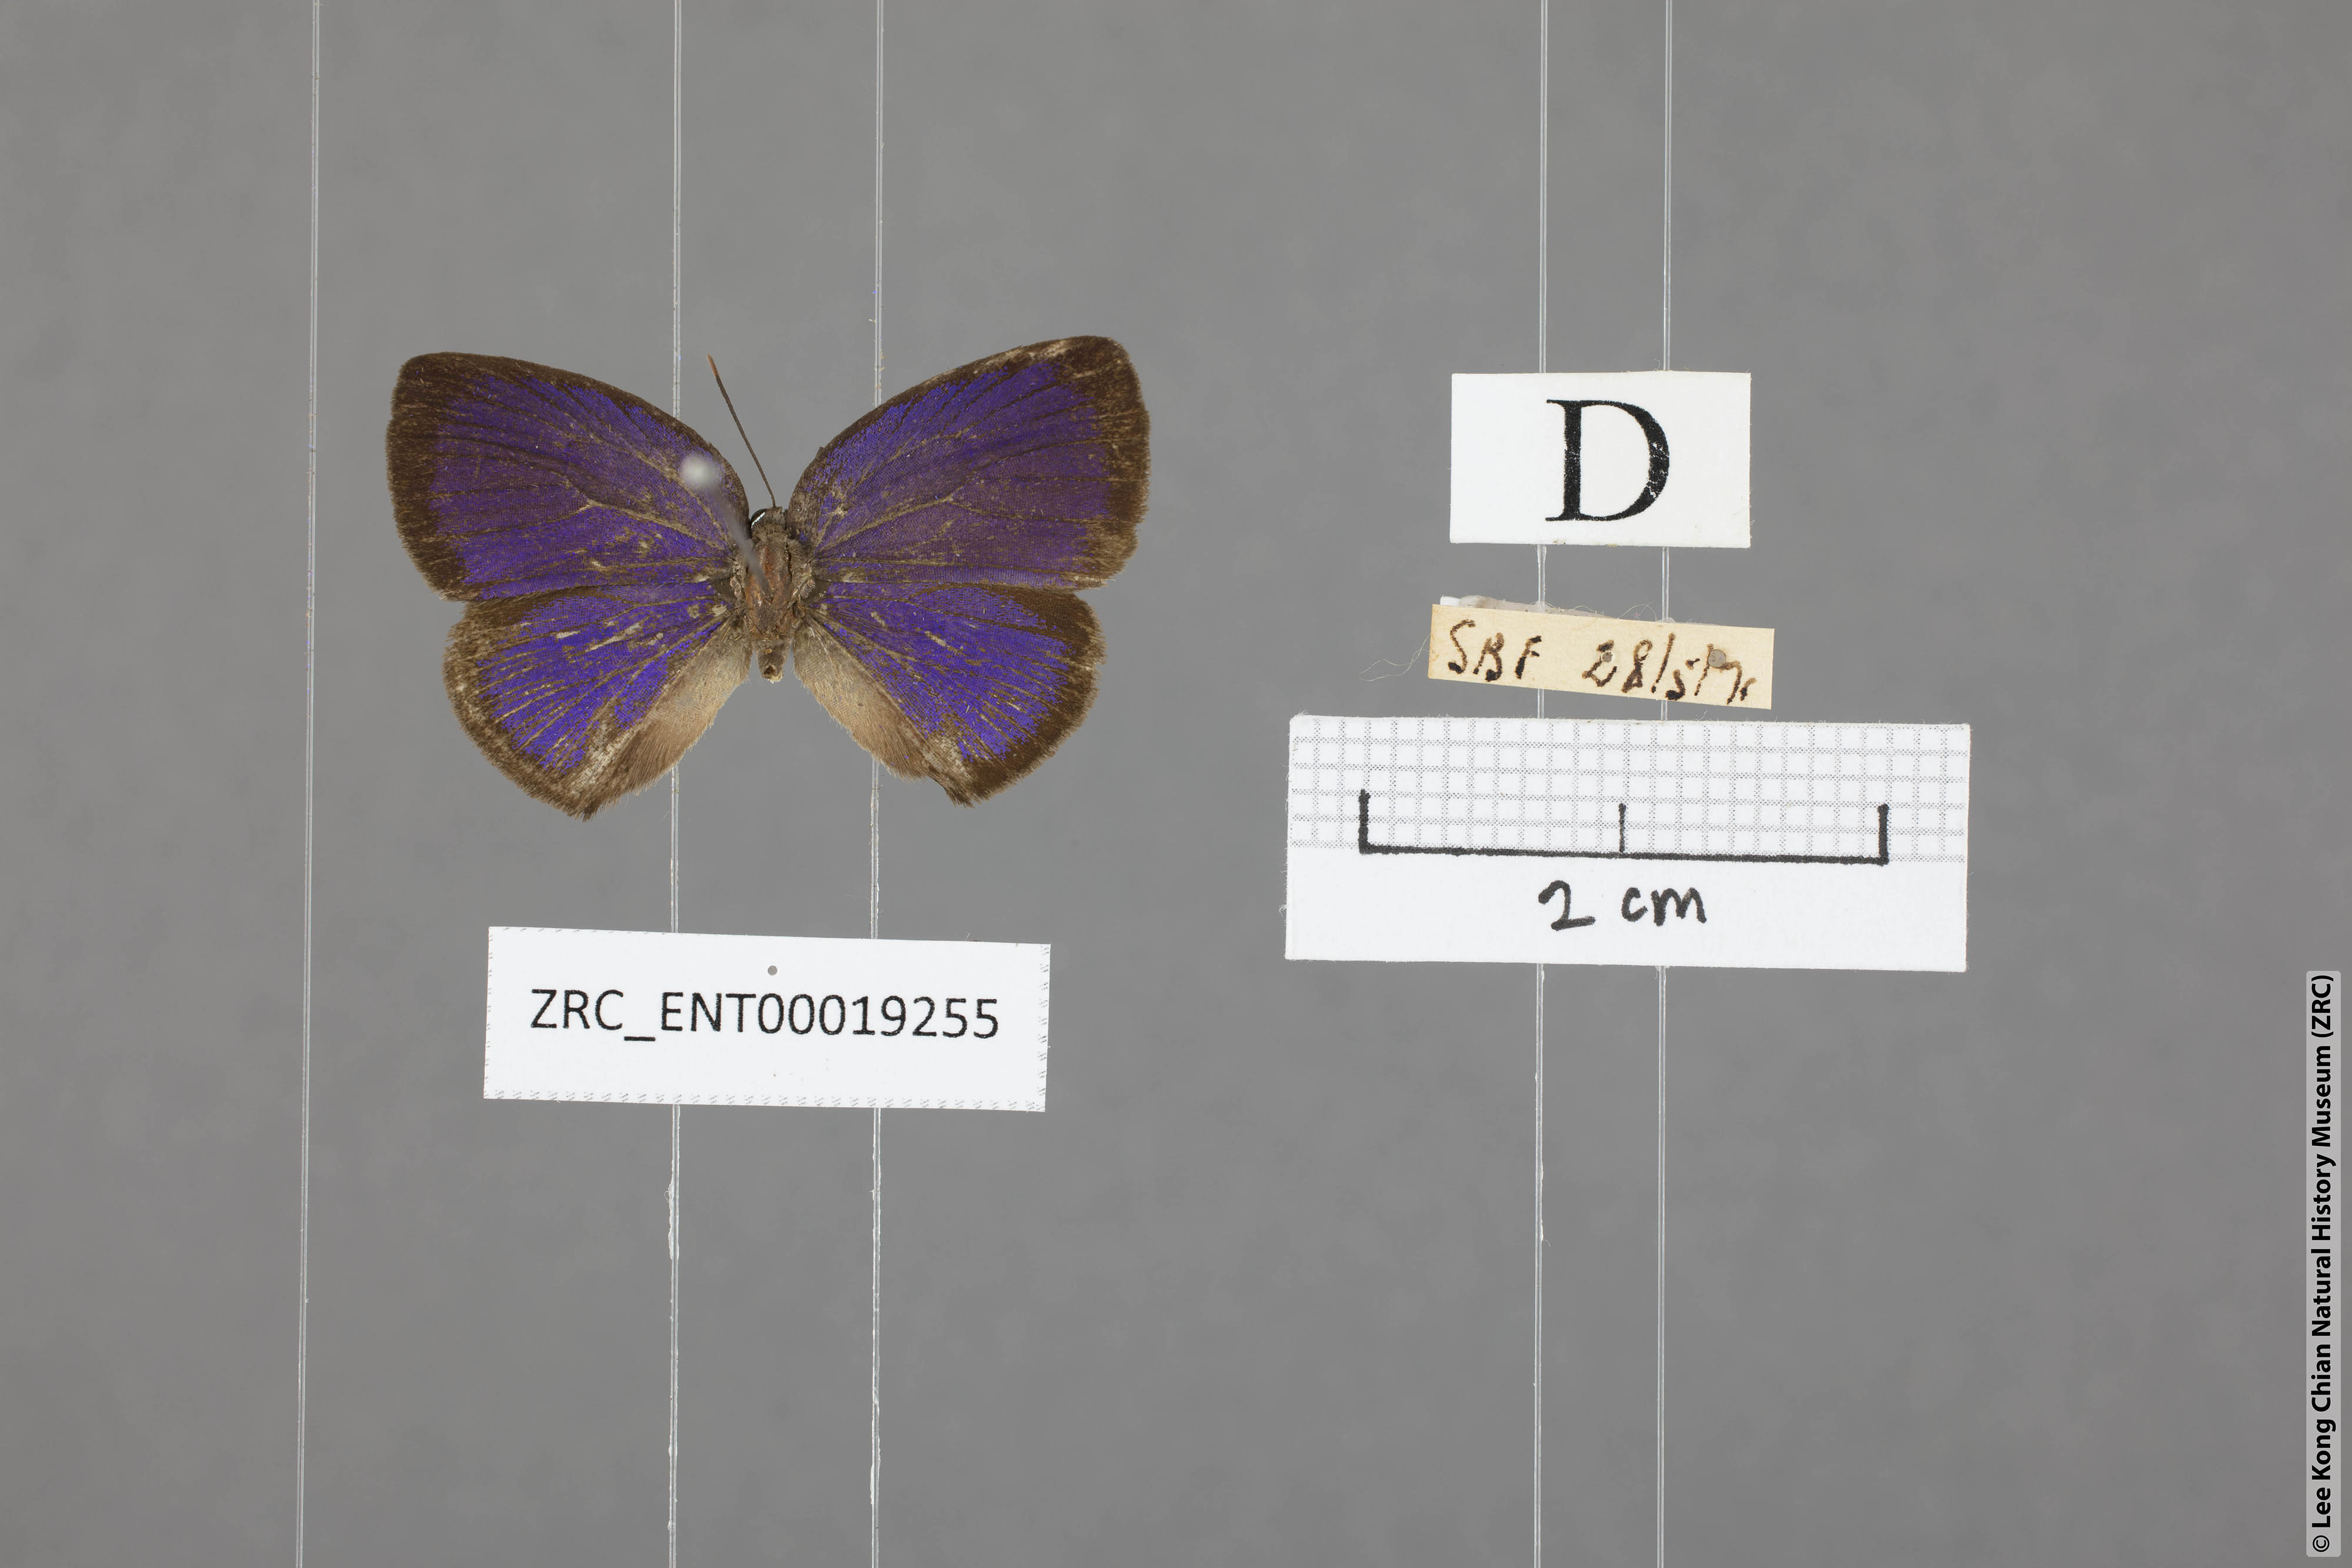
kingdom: Animalia
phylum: Arthropoda
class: Insecta
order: Lepidoptera
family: Lycaenidae
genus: Arhopala
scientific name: Arhopala avathina
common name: Lunulate yellow oakblue
